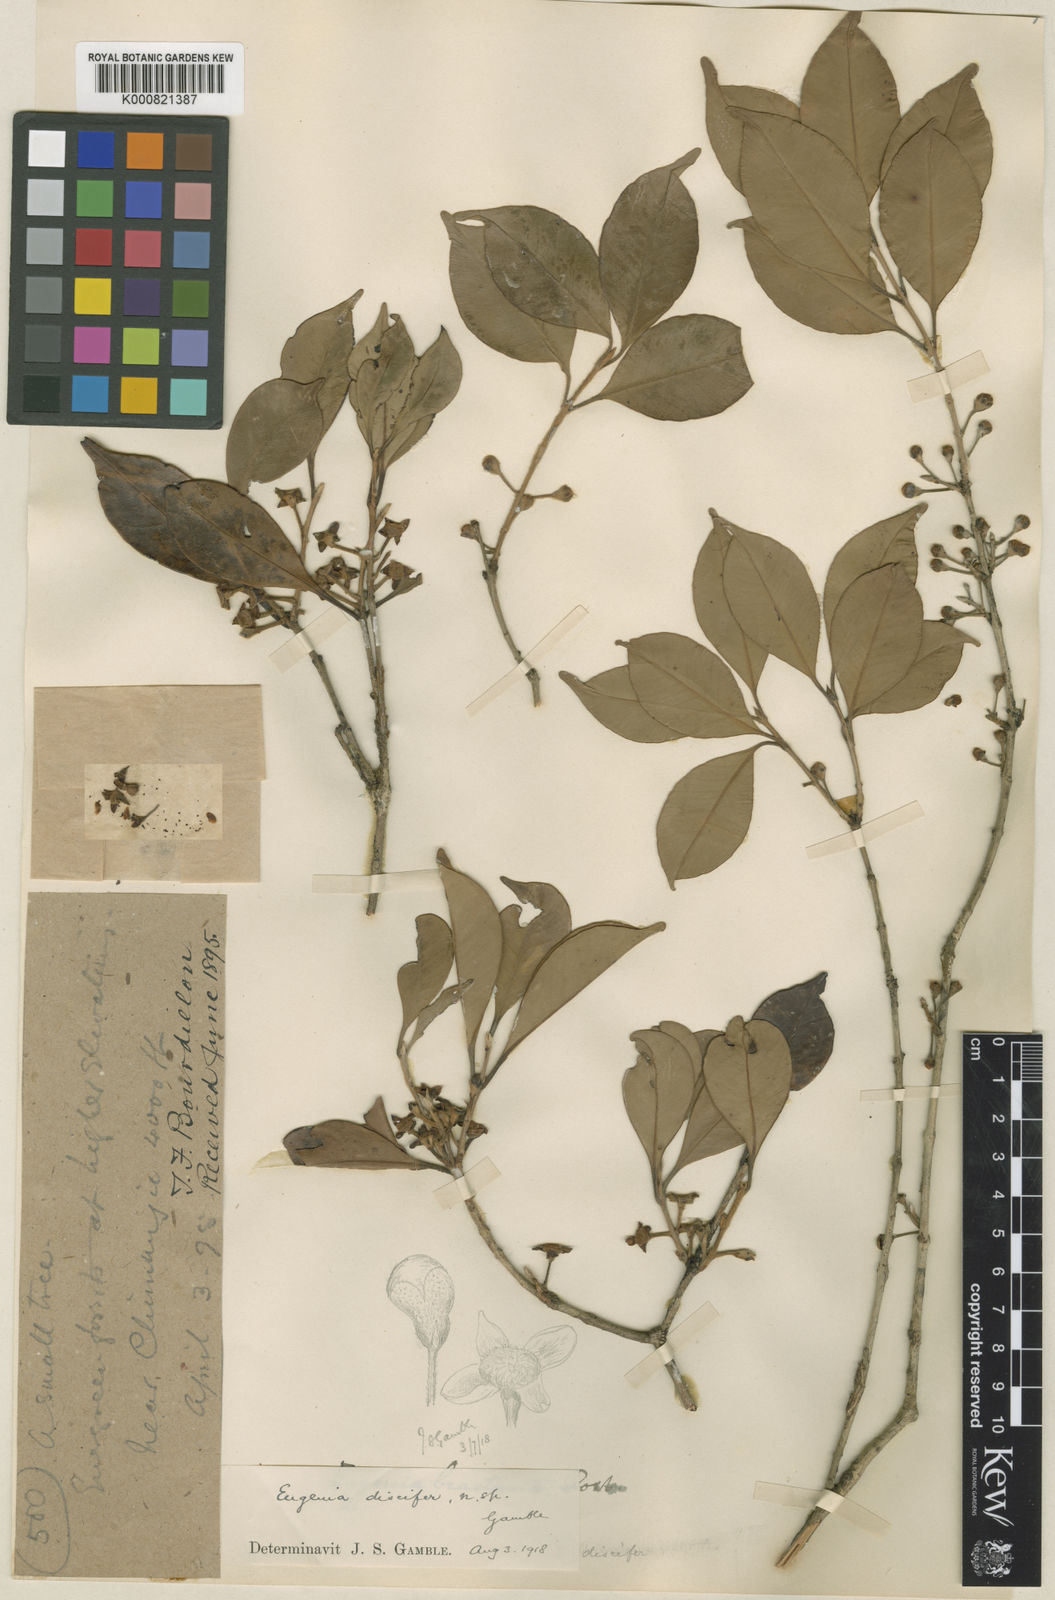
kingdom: Plantae
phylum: Tracheophyta
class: Magnoliopsida
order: Myrtales
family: Myrtaceae
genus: Syzygium
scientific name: Syzygium
